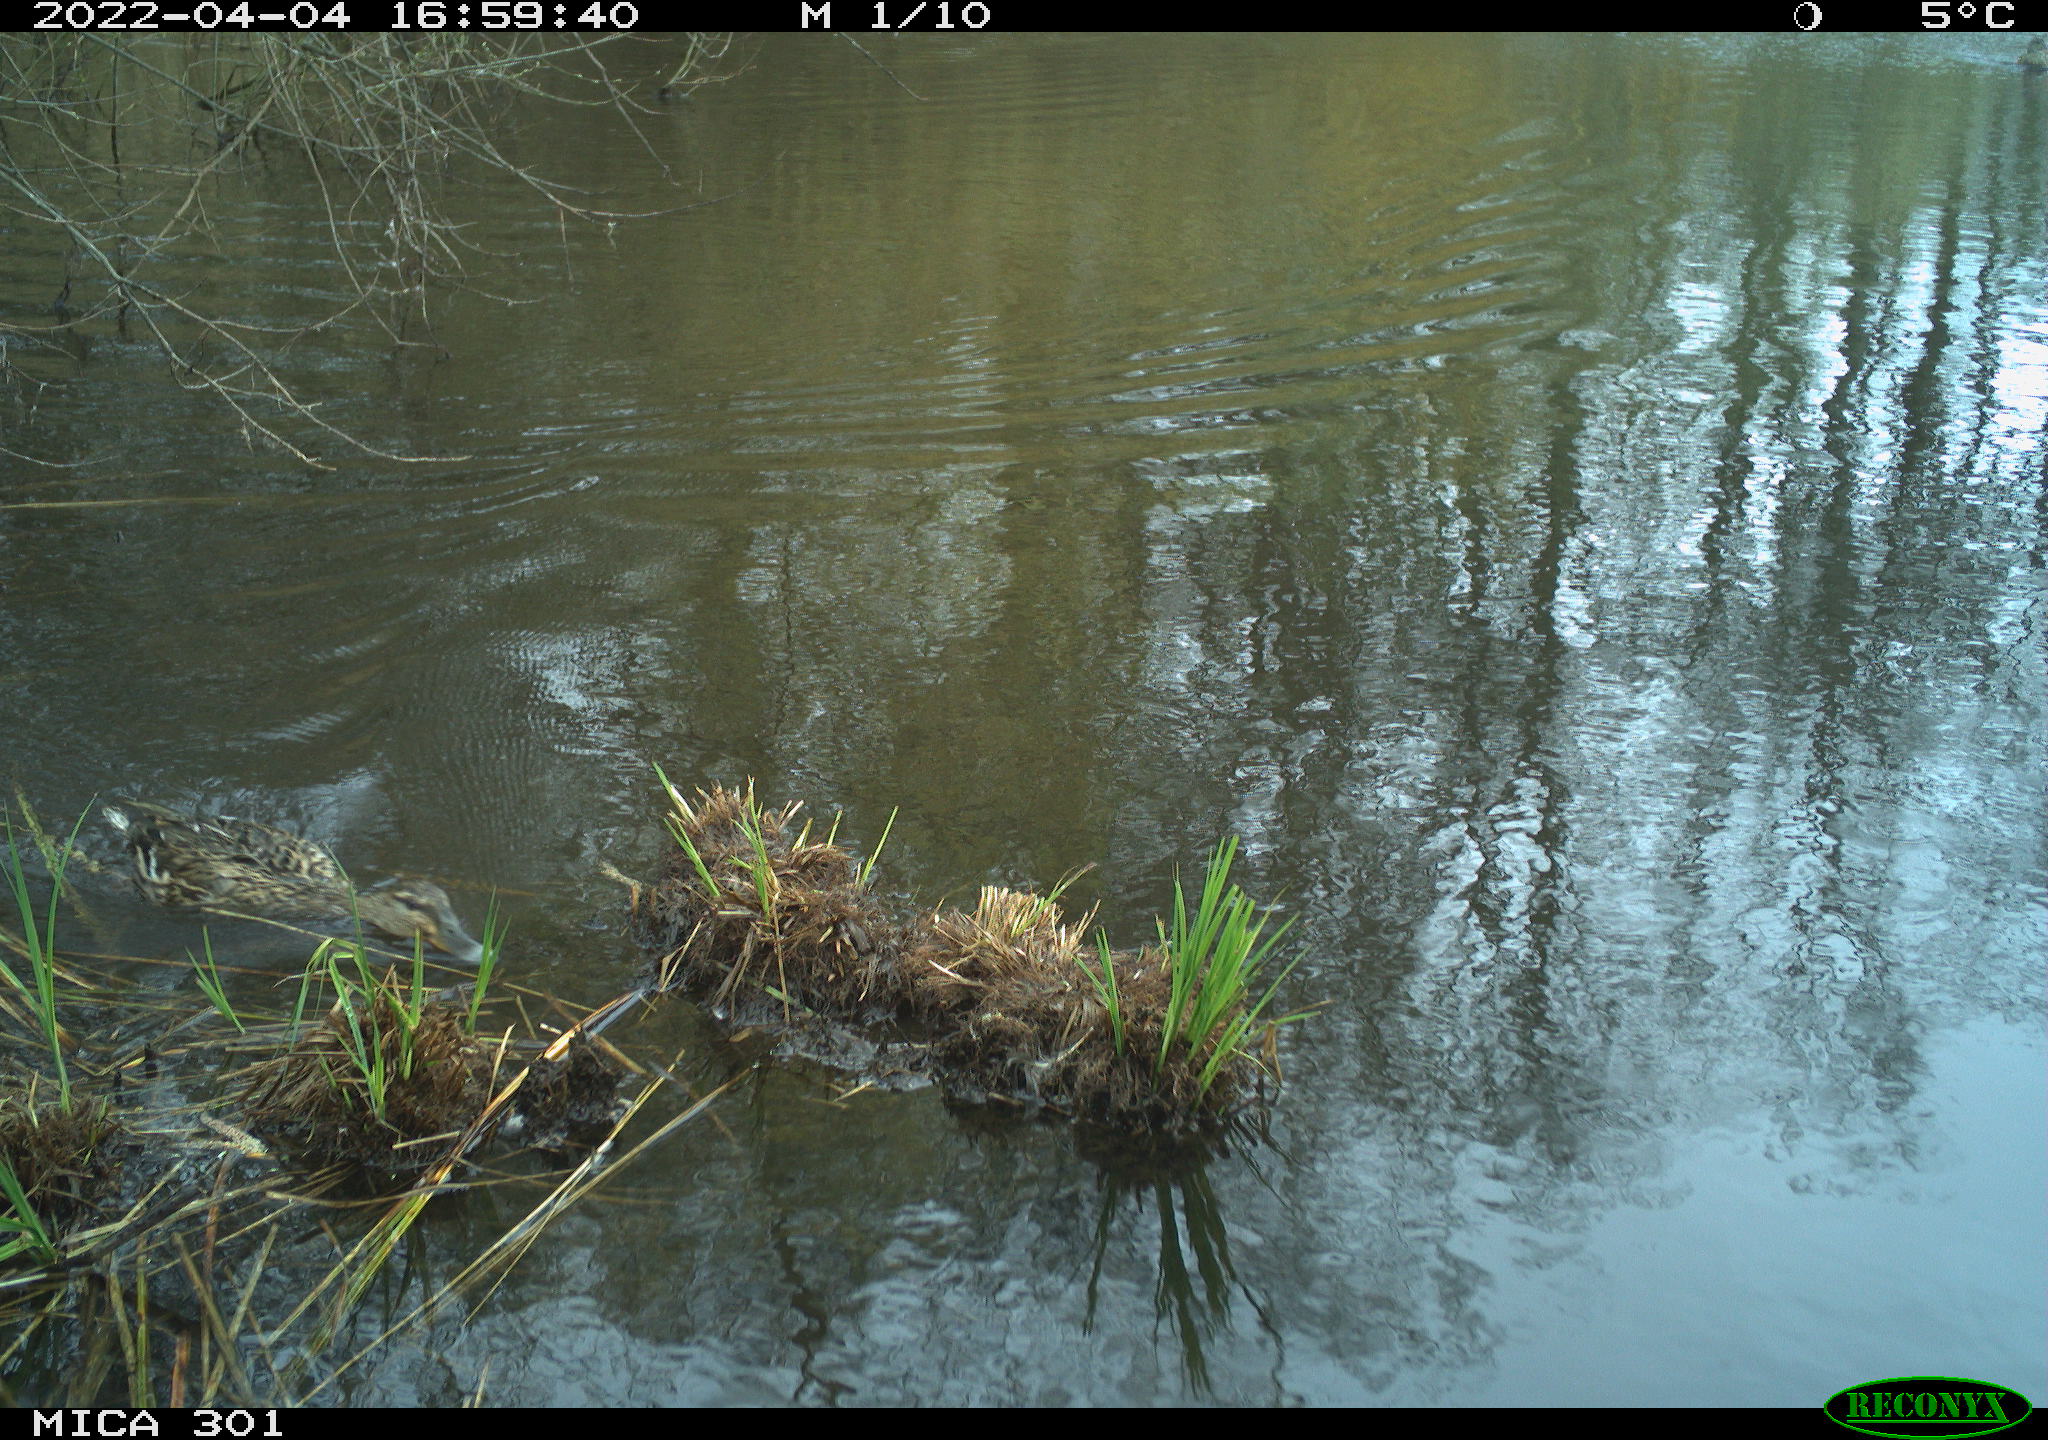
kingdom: Animalia
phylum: Chordata
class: Aves
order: Anseriformes
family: Anatidae
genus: Anas
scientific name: Anas platyrhynchos
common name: Mallard
